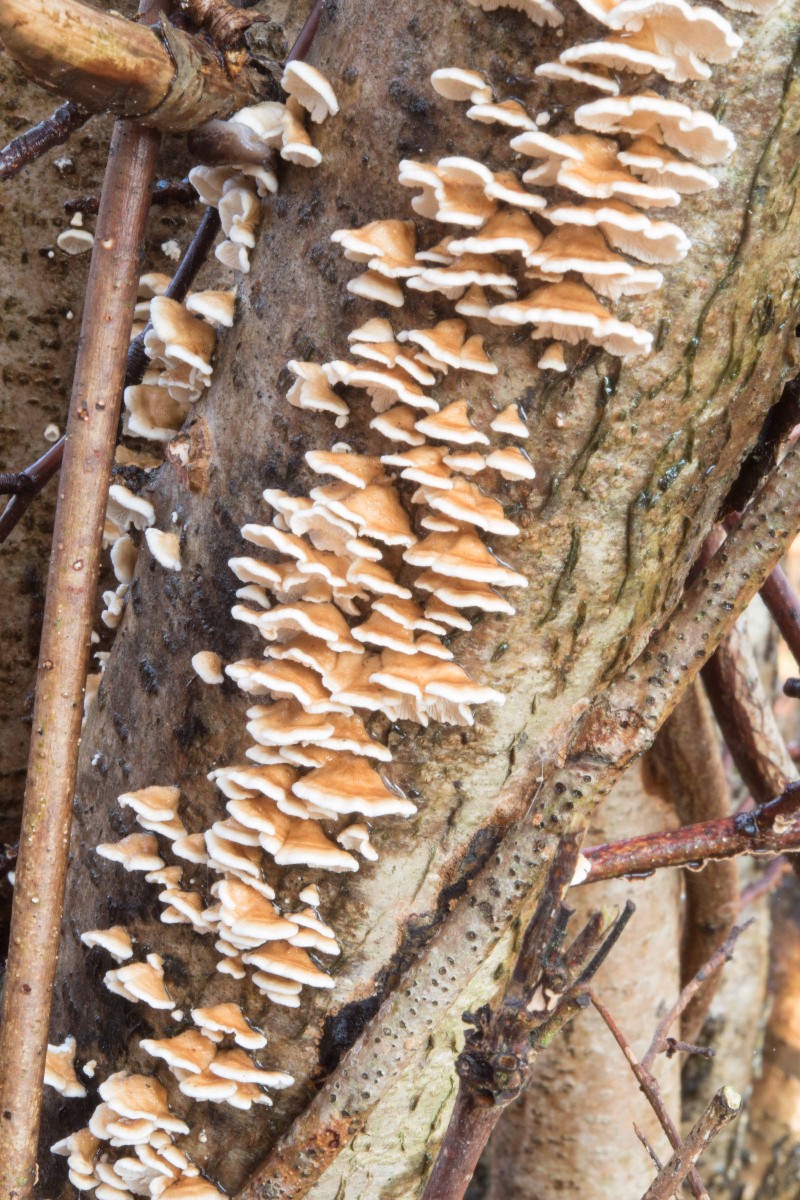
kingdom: Fungi
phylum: Basidiomycota
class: Agaricomycetes
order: Amylocorticiales
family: Amylocorticiaceae
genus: Plicaturopsis
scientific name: Plicaturopsis crispa
